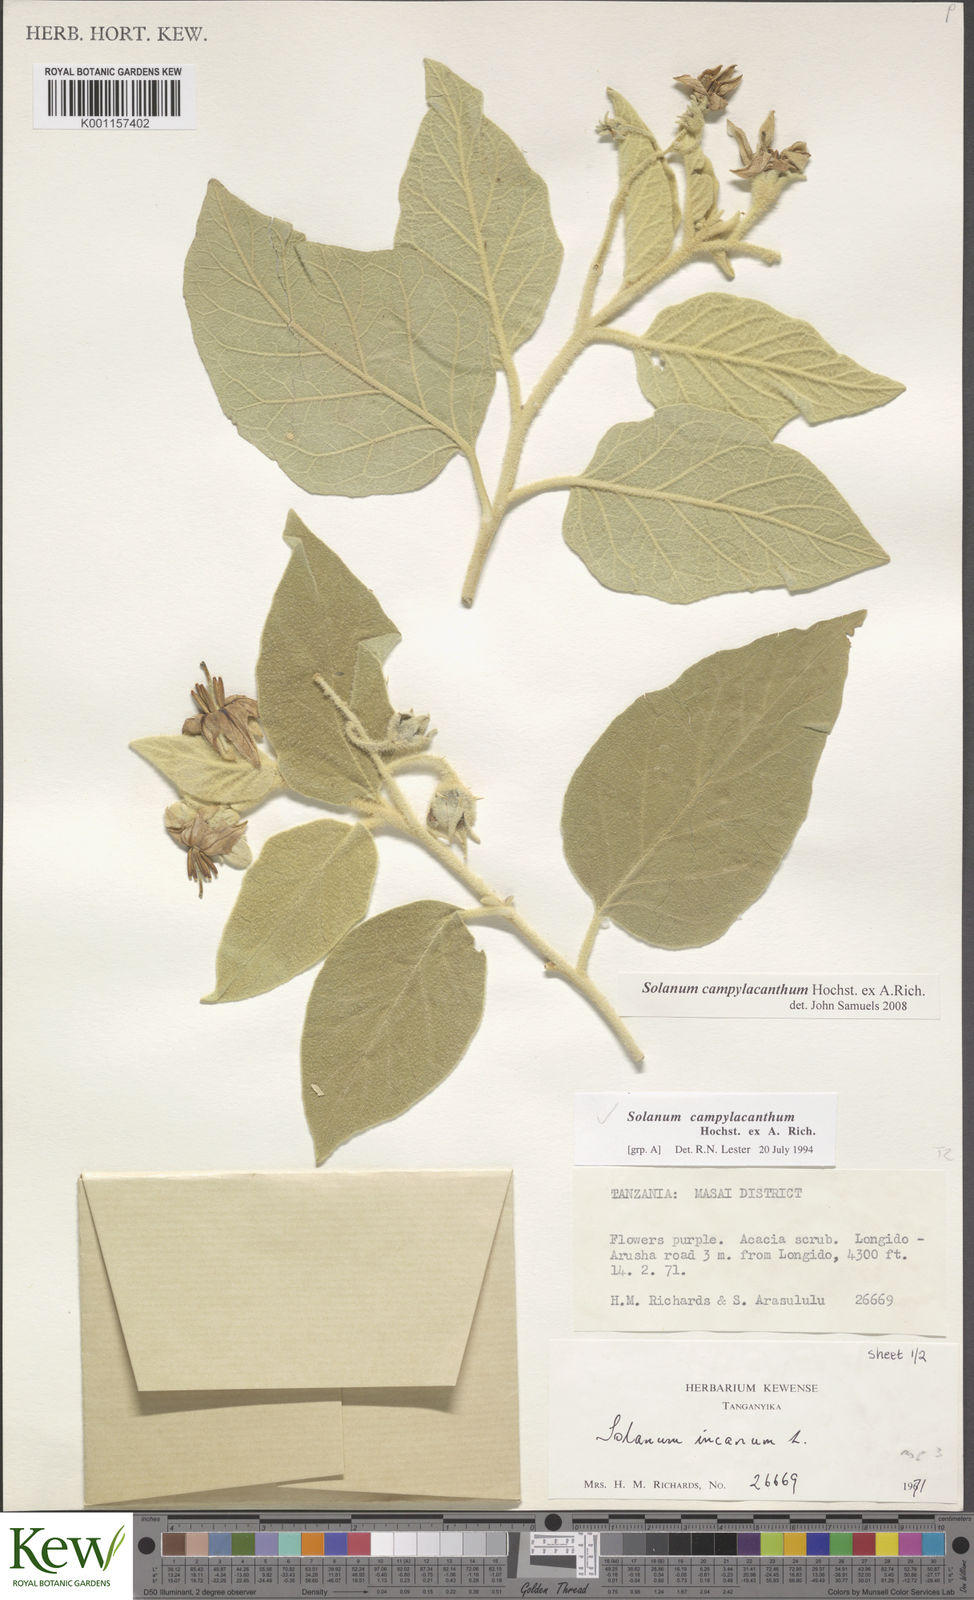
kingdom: Plantae
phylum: Tracheophyta
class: Magnoliopsida
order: Solanales
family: Solanaceae
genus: Solanum
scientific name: Solanum campylacanthum
